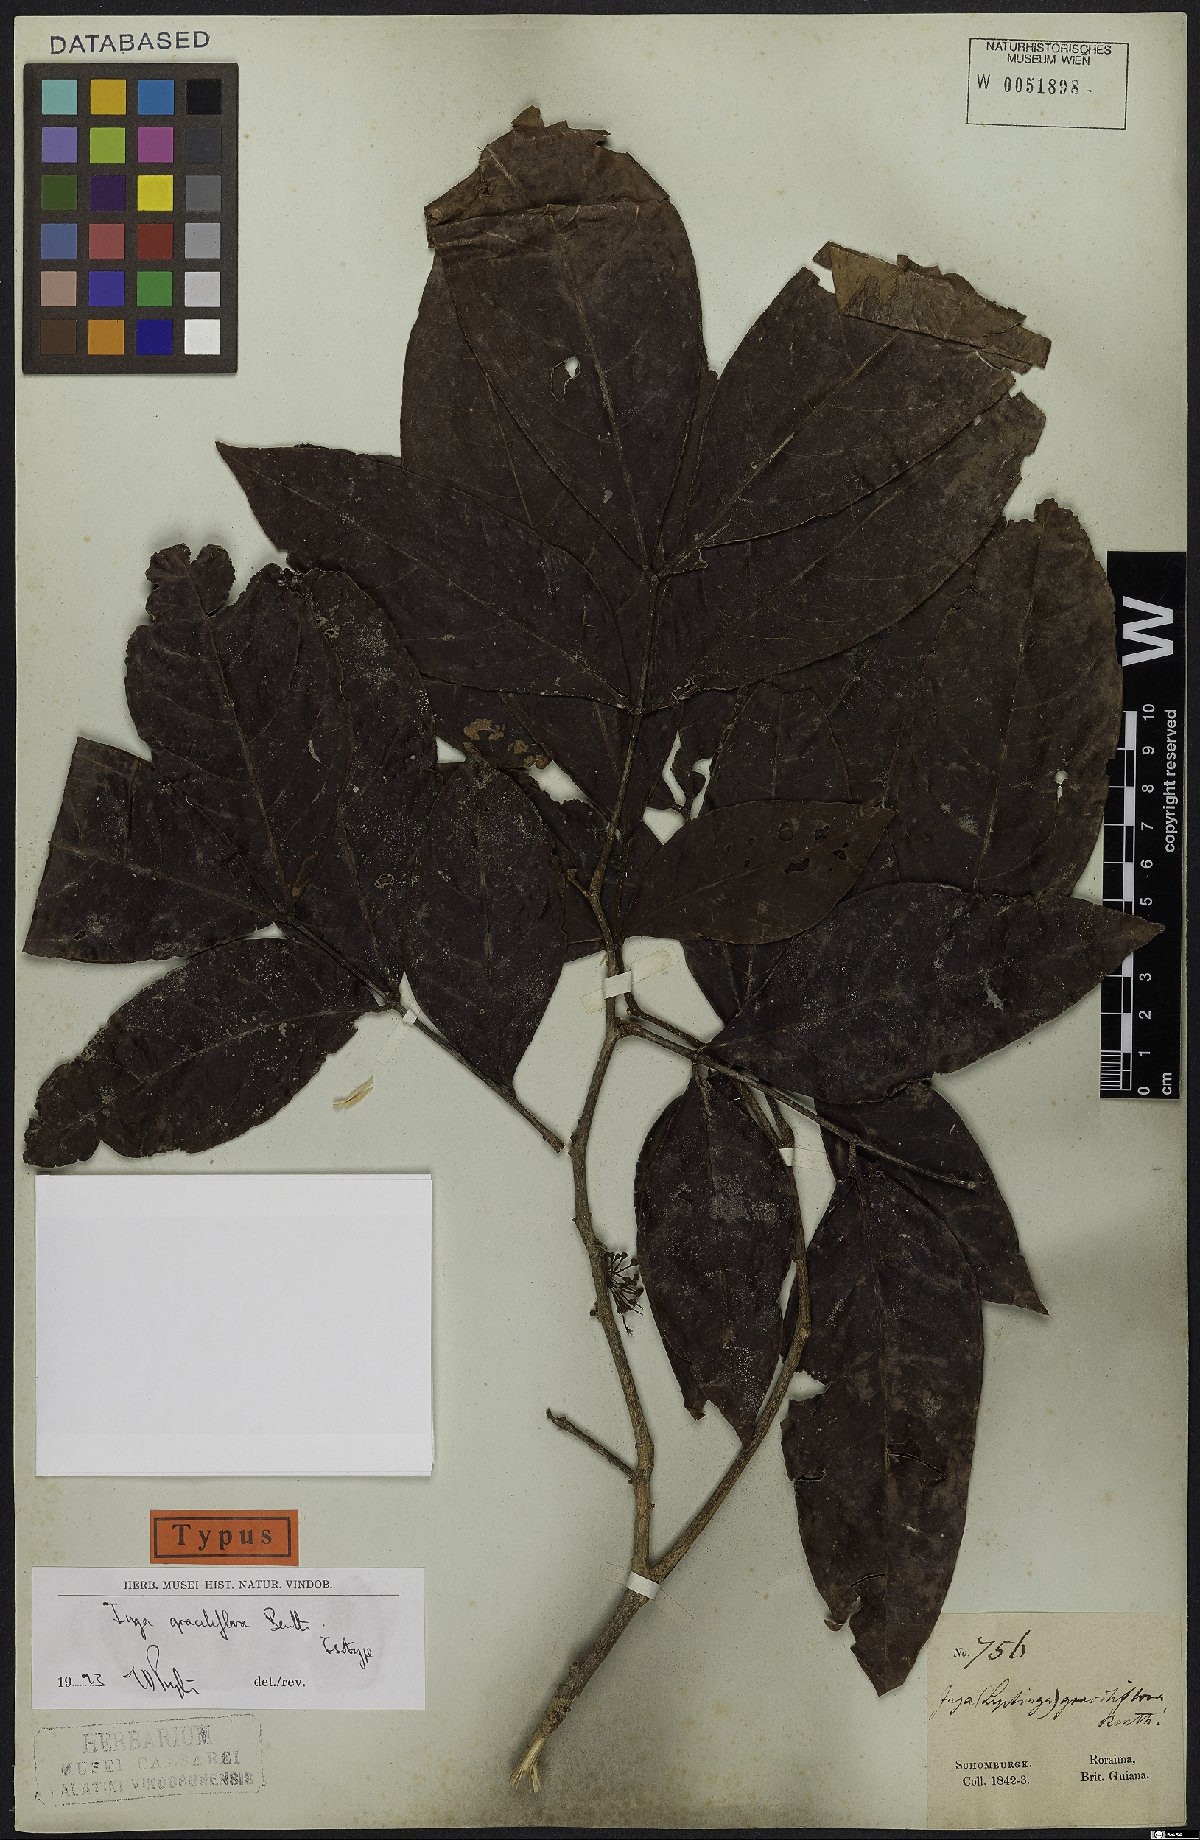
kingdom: Plantae
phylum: Tracheophyta
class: Magnoliopsida
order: Fabales
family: Fabaceae
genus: Inga
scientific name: Inga graciliflora
